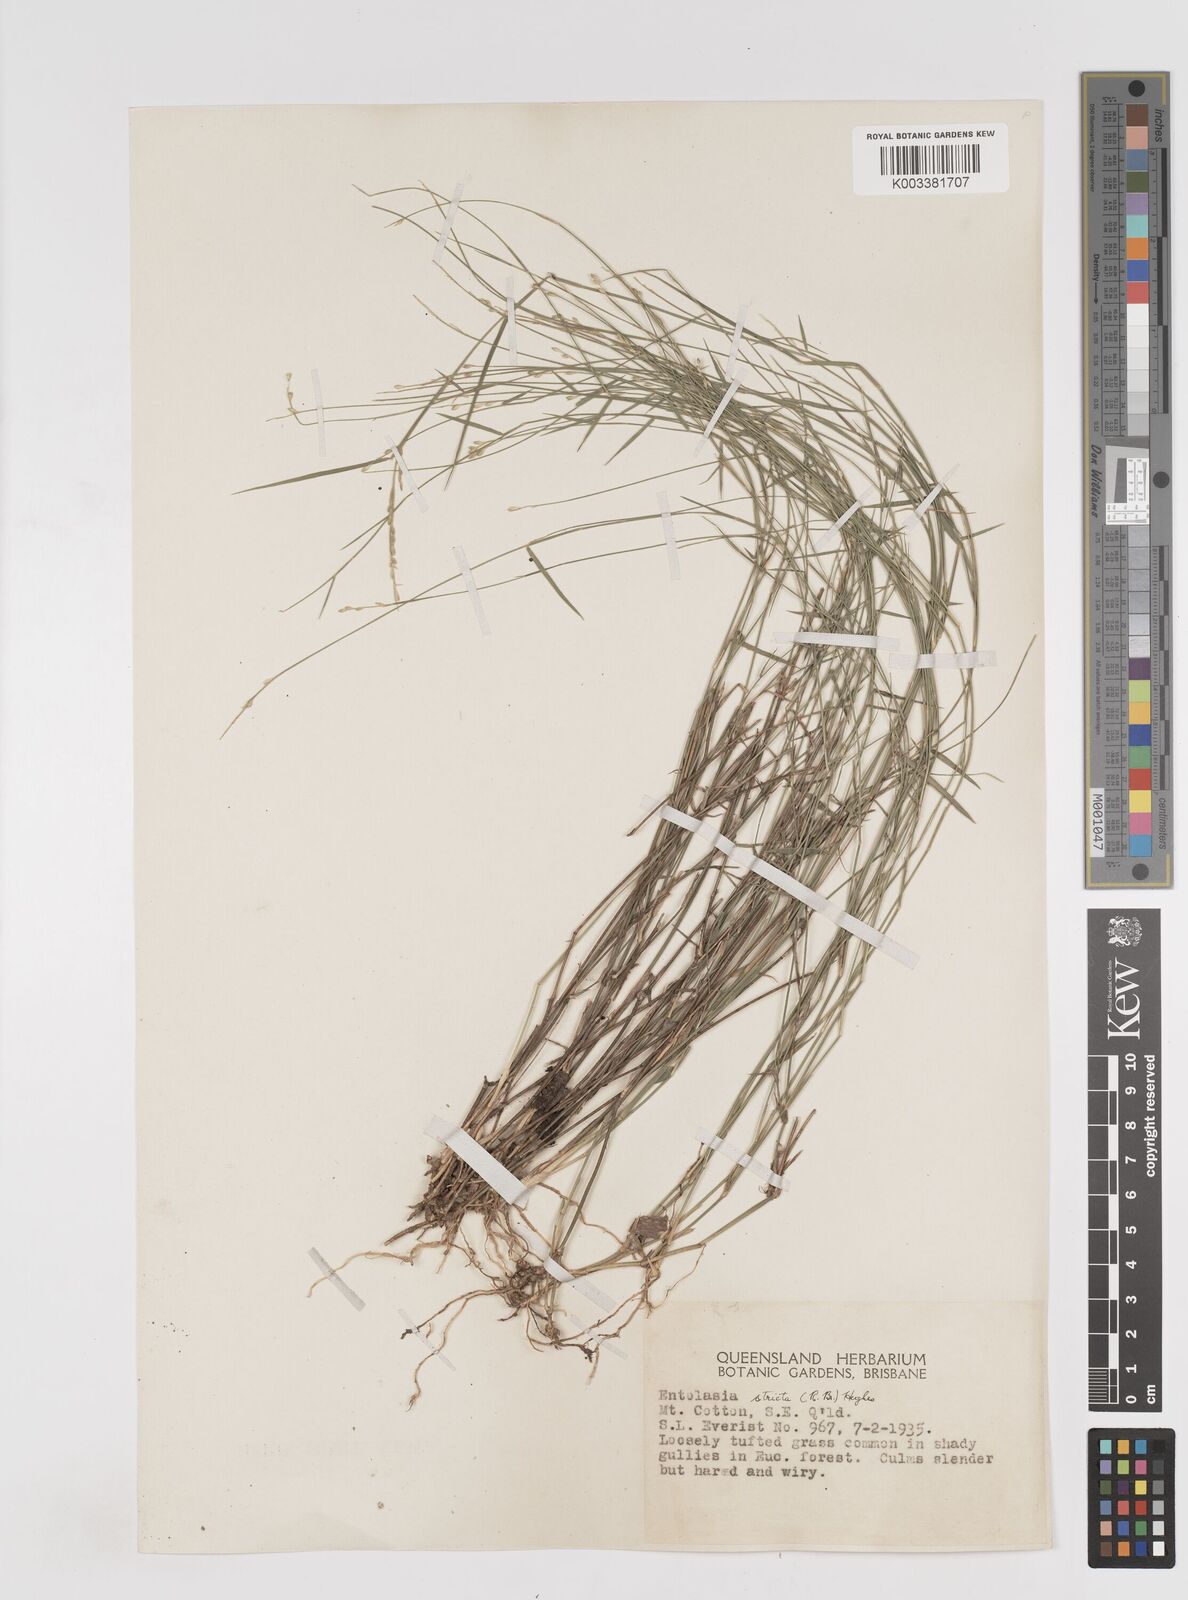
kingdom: Plantae
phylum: Tracheophyta
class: Liliopsida
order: Poales
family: Poaceae
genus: Entolasia
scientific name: Entolasia stricta
